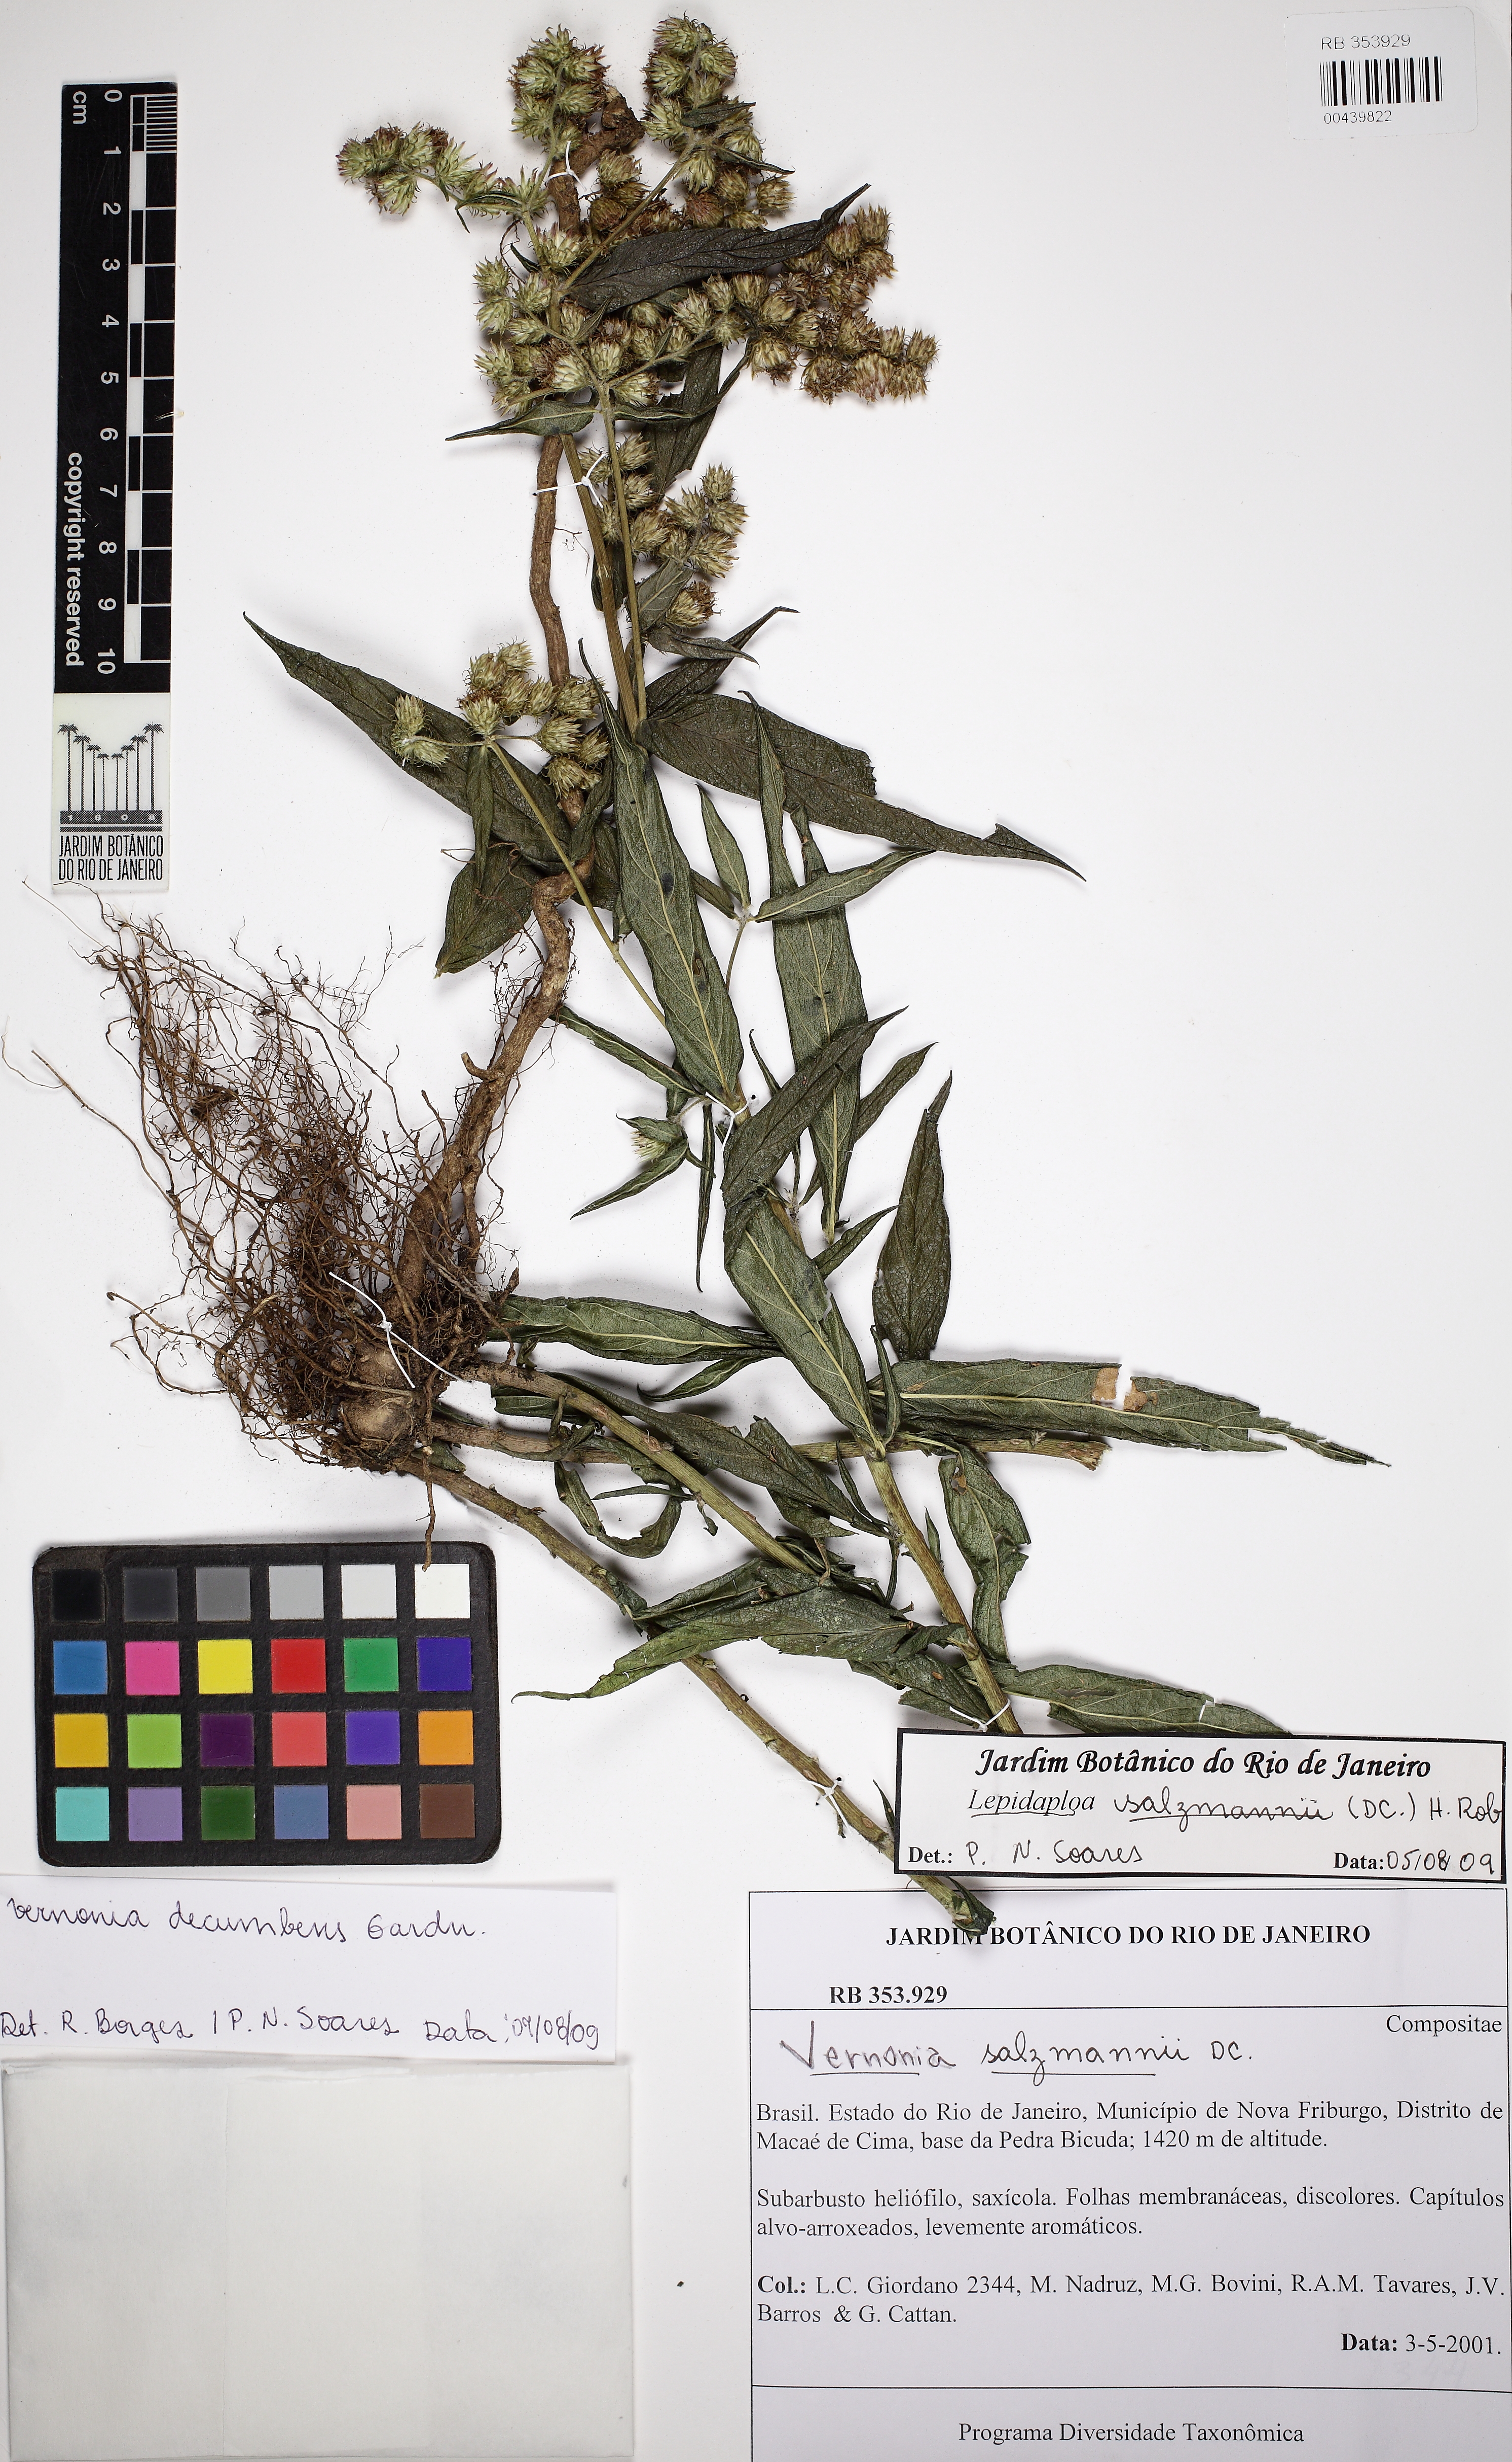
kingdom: Plantae
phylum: Tracheophyta
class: Magnoliopsida
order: Asterales
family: Asteraceae
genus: Lepidaploa
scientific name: Lepidaploa decumbens
